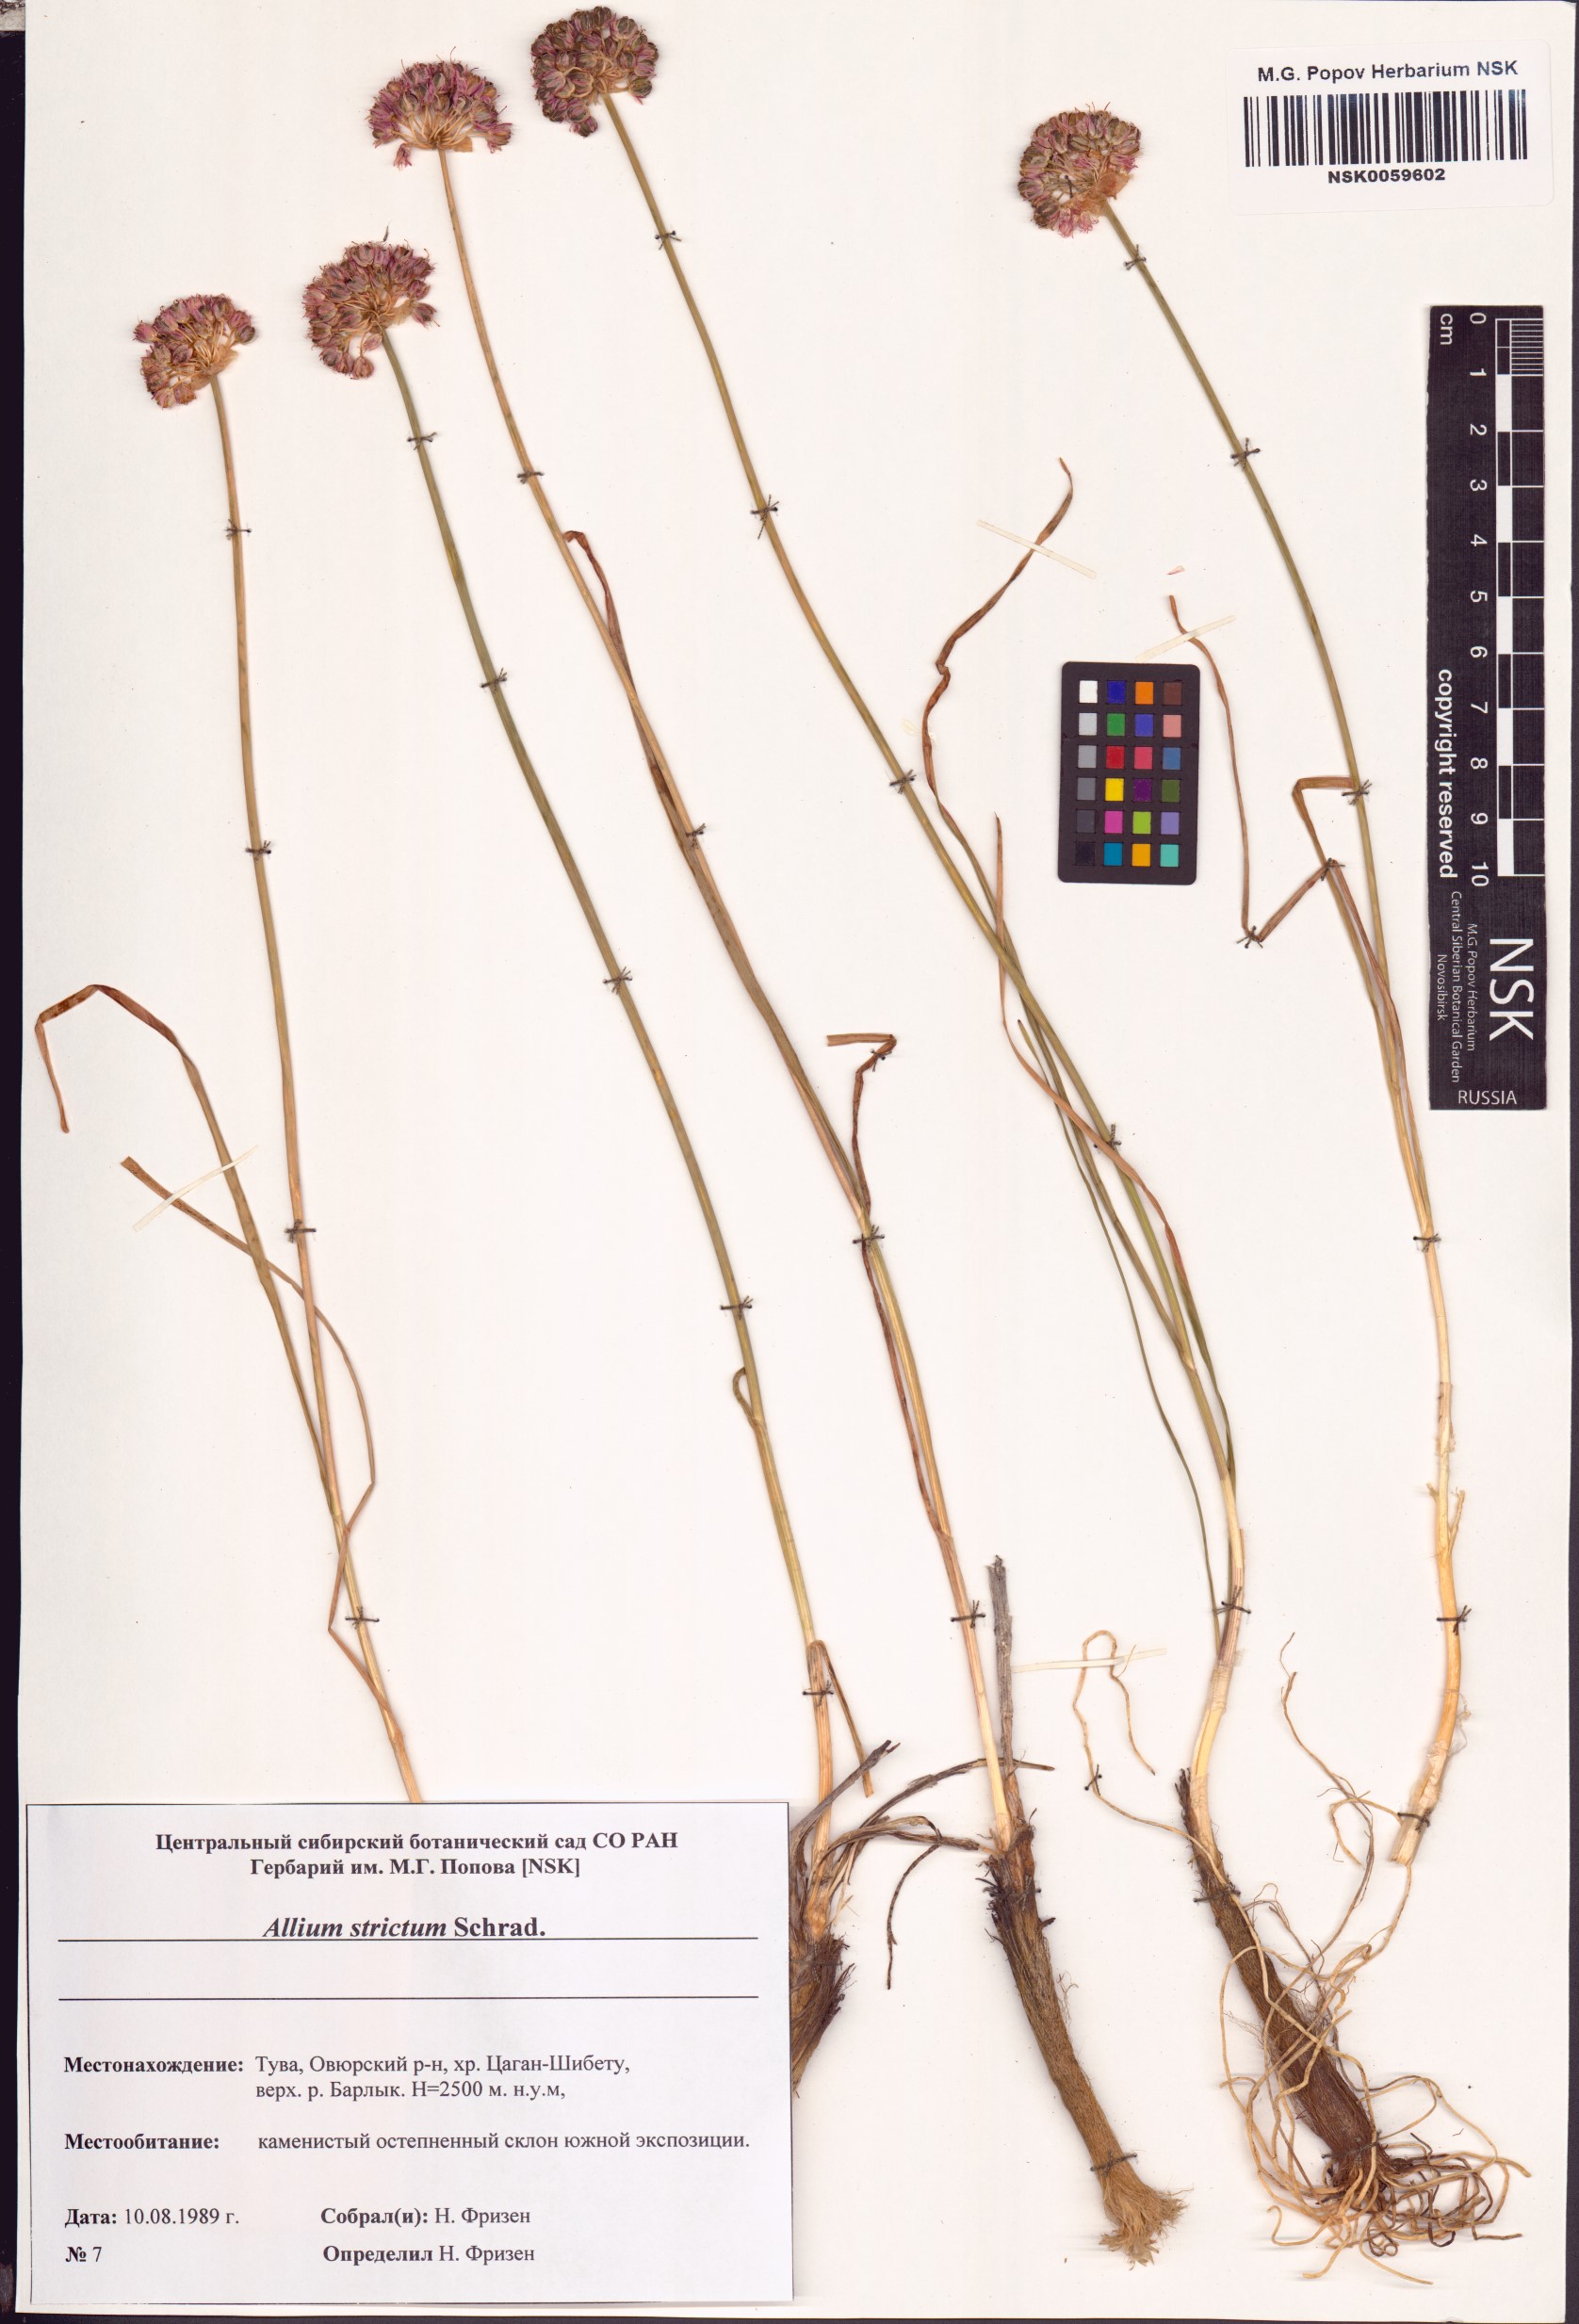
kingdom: Plantae
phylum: Tracheophyta
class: Liliopsida
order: Asparagales
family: Amaryllidaceae
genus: Allium
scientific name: Allium strictum
